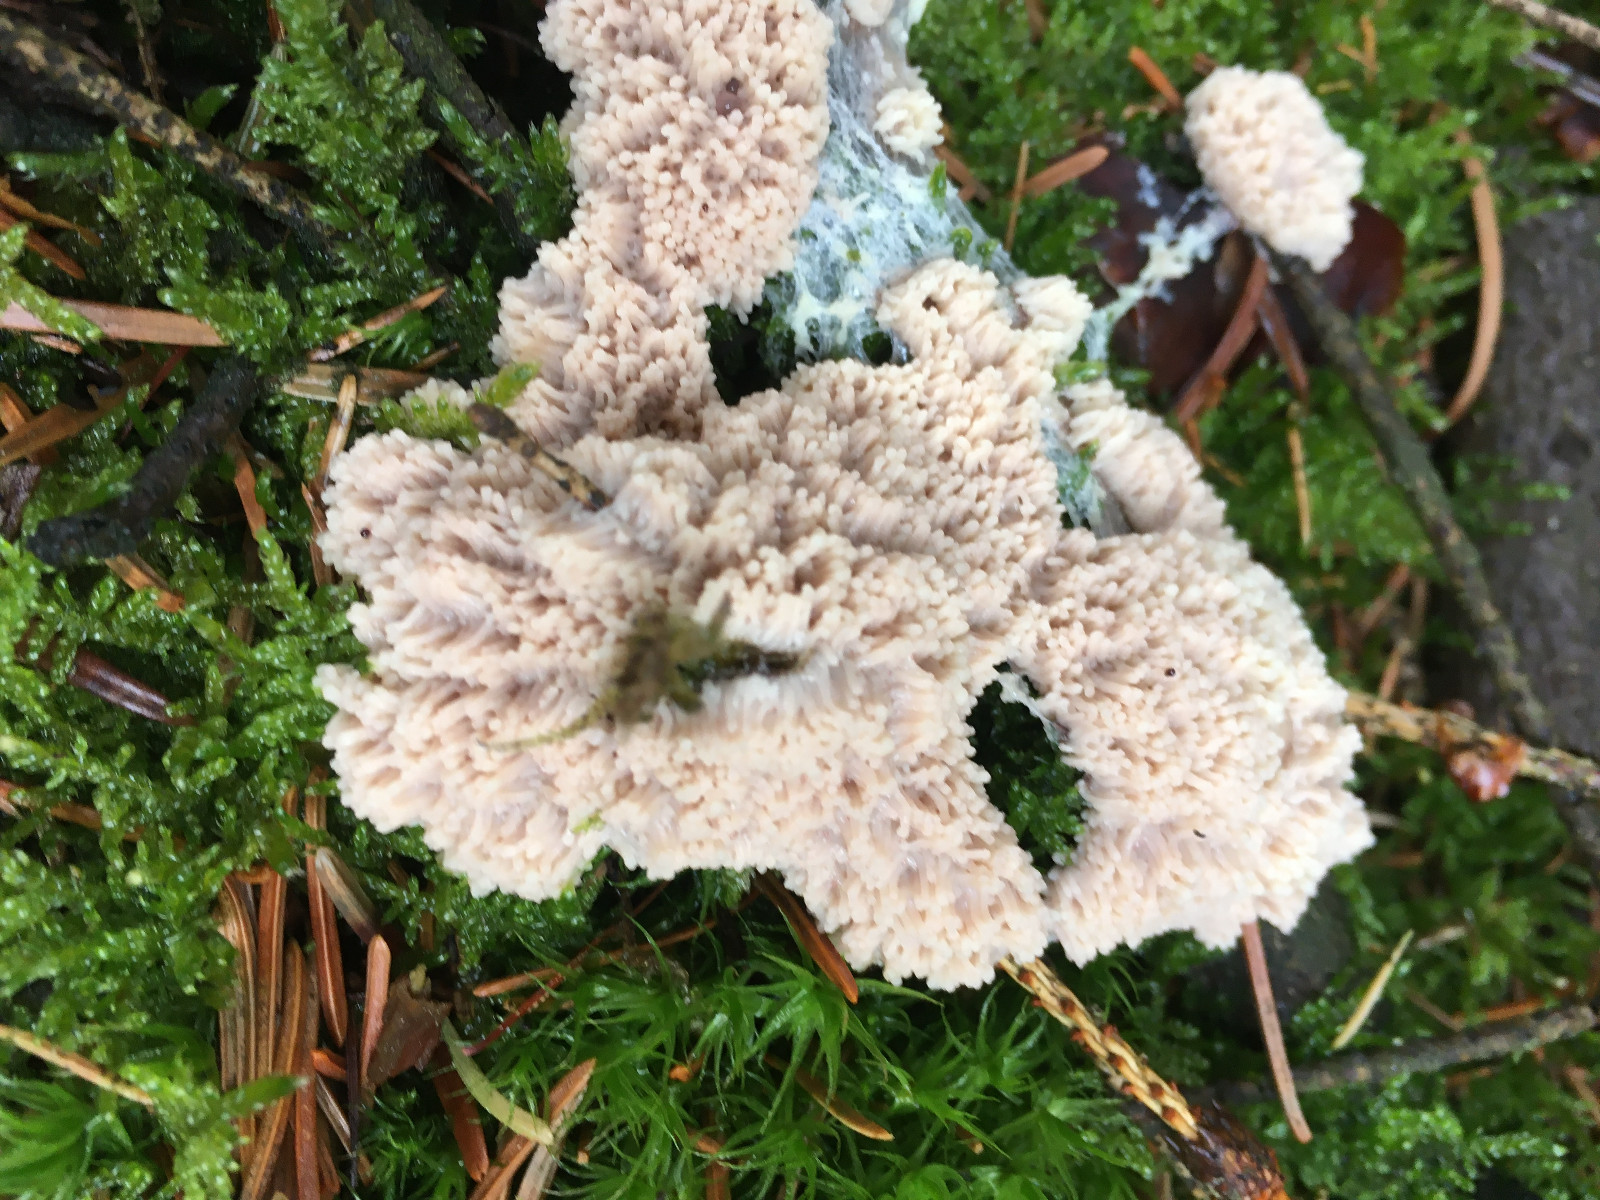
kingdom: Protozoa
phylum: Mycetozoa
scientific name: Mycetozoa
